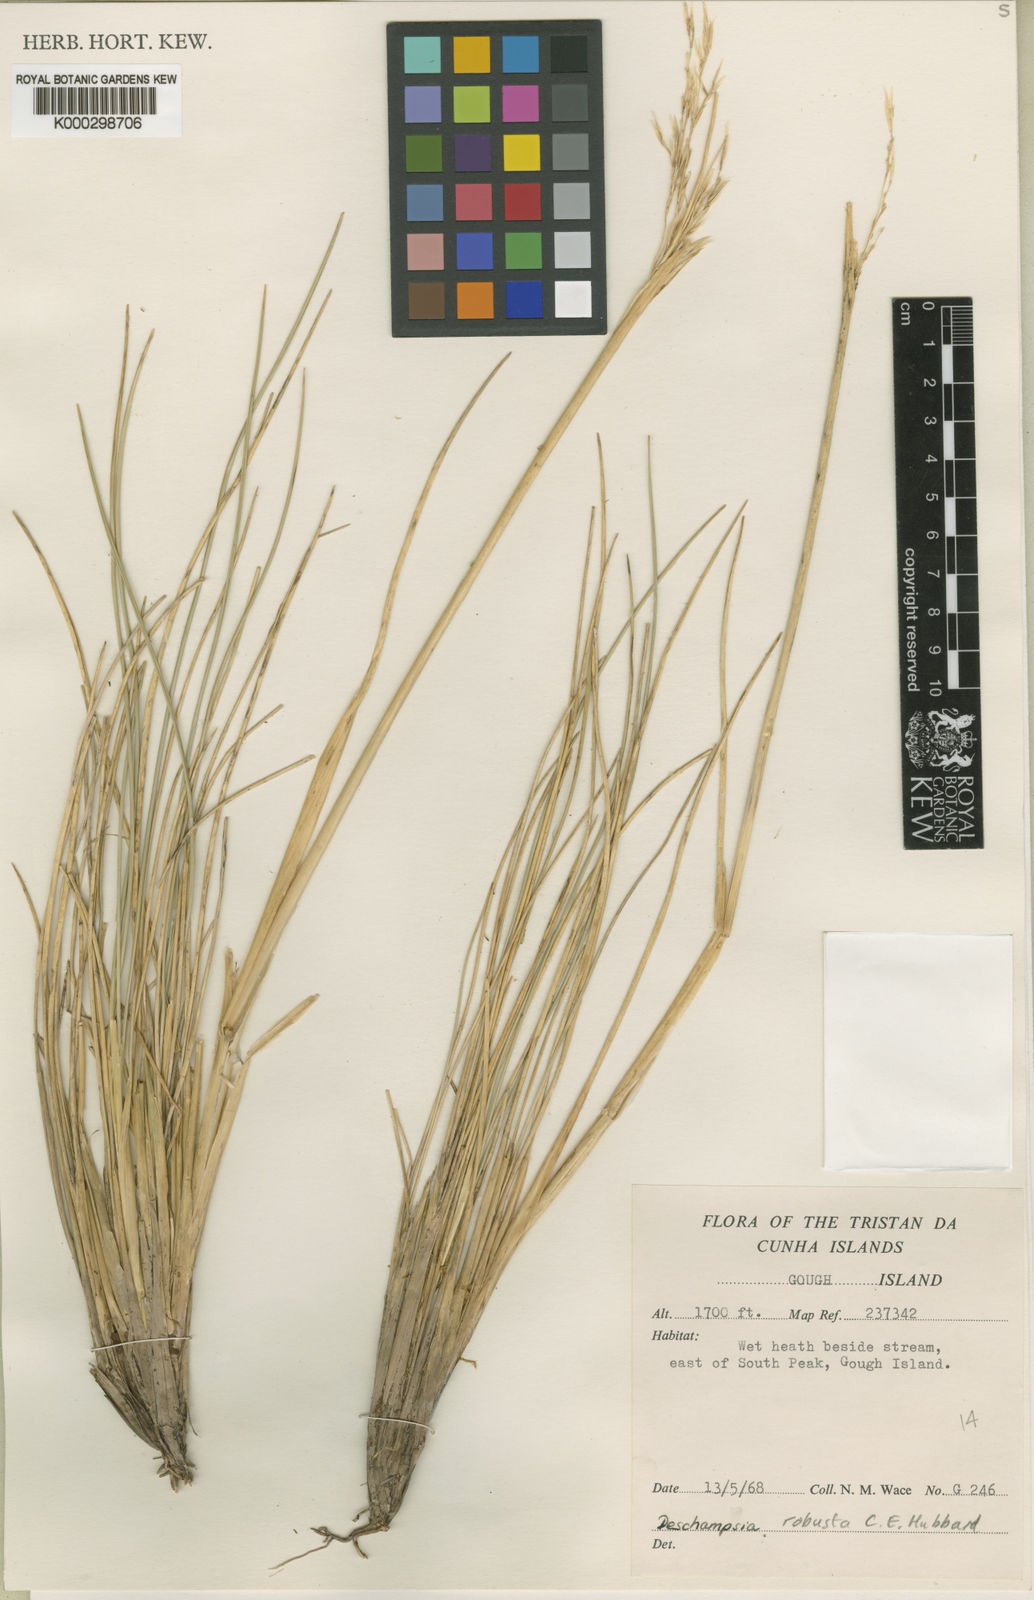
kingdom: Plantae
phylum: Tracheophyta
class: Liliopsida
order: Poales
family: Poaceae
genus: Deschampsia
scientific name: Deschampsia robusta
